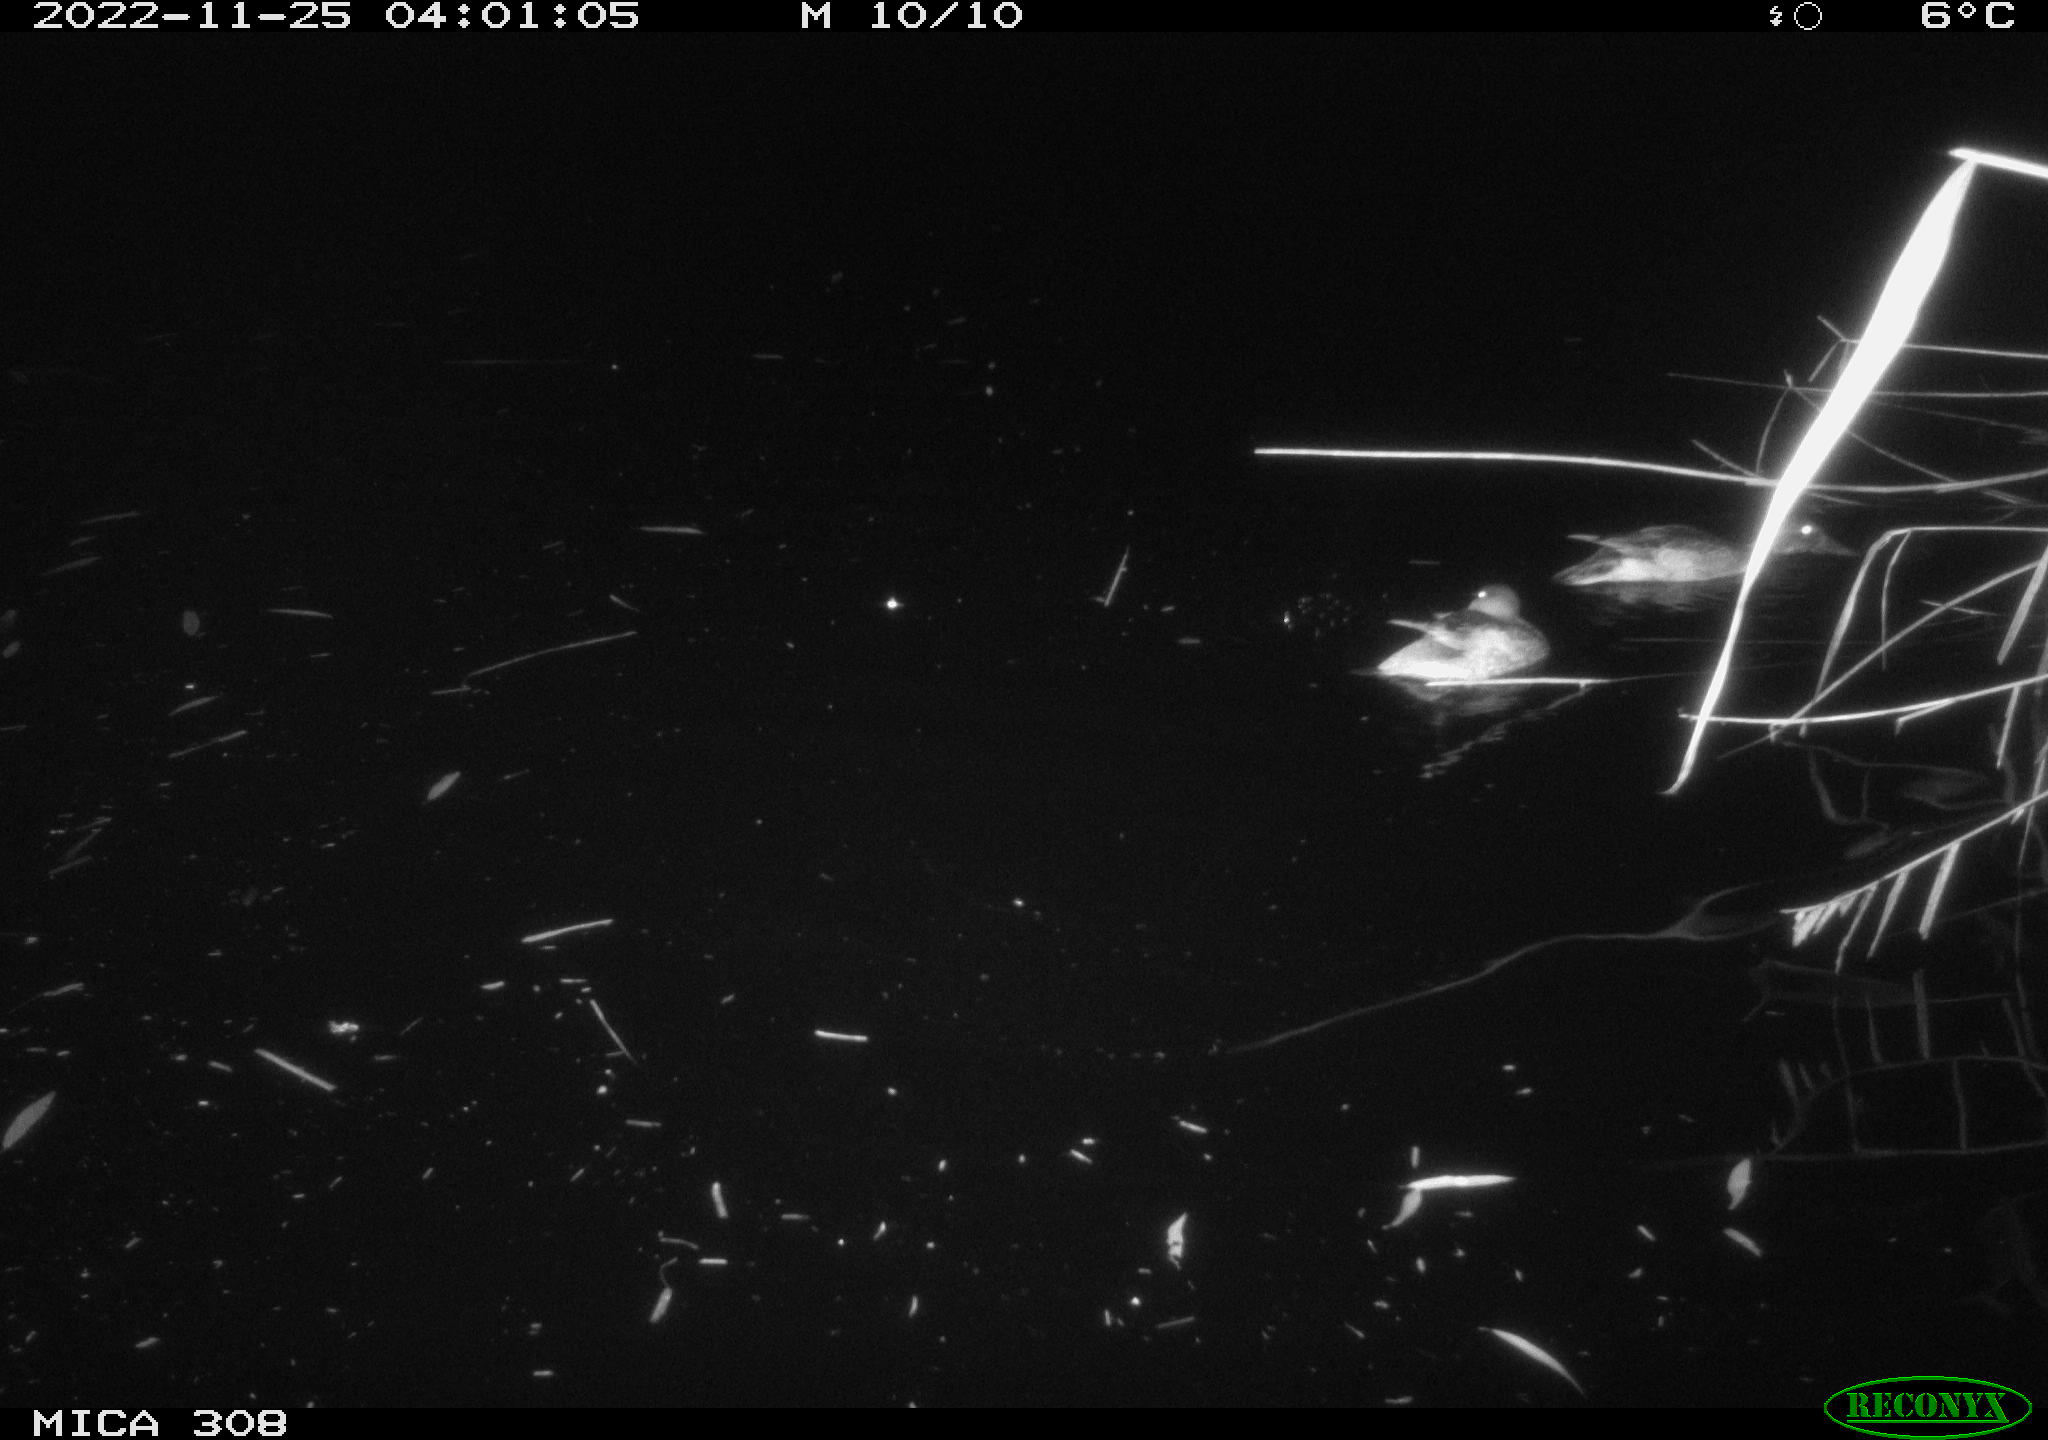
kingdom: Animalia
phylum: Chordata
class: Aves
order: Anseriformes
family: Anatidae
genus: Anas
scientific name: Anas
